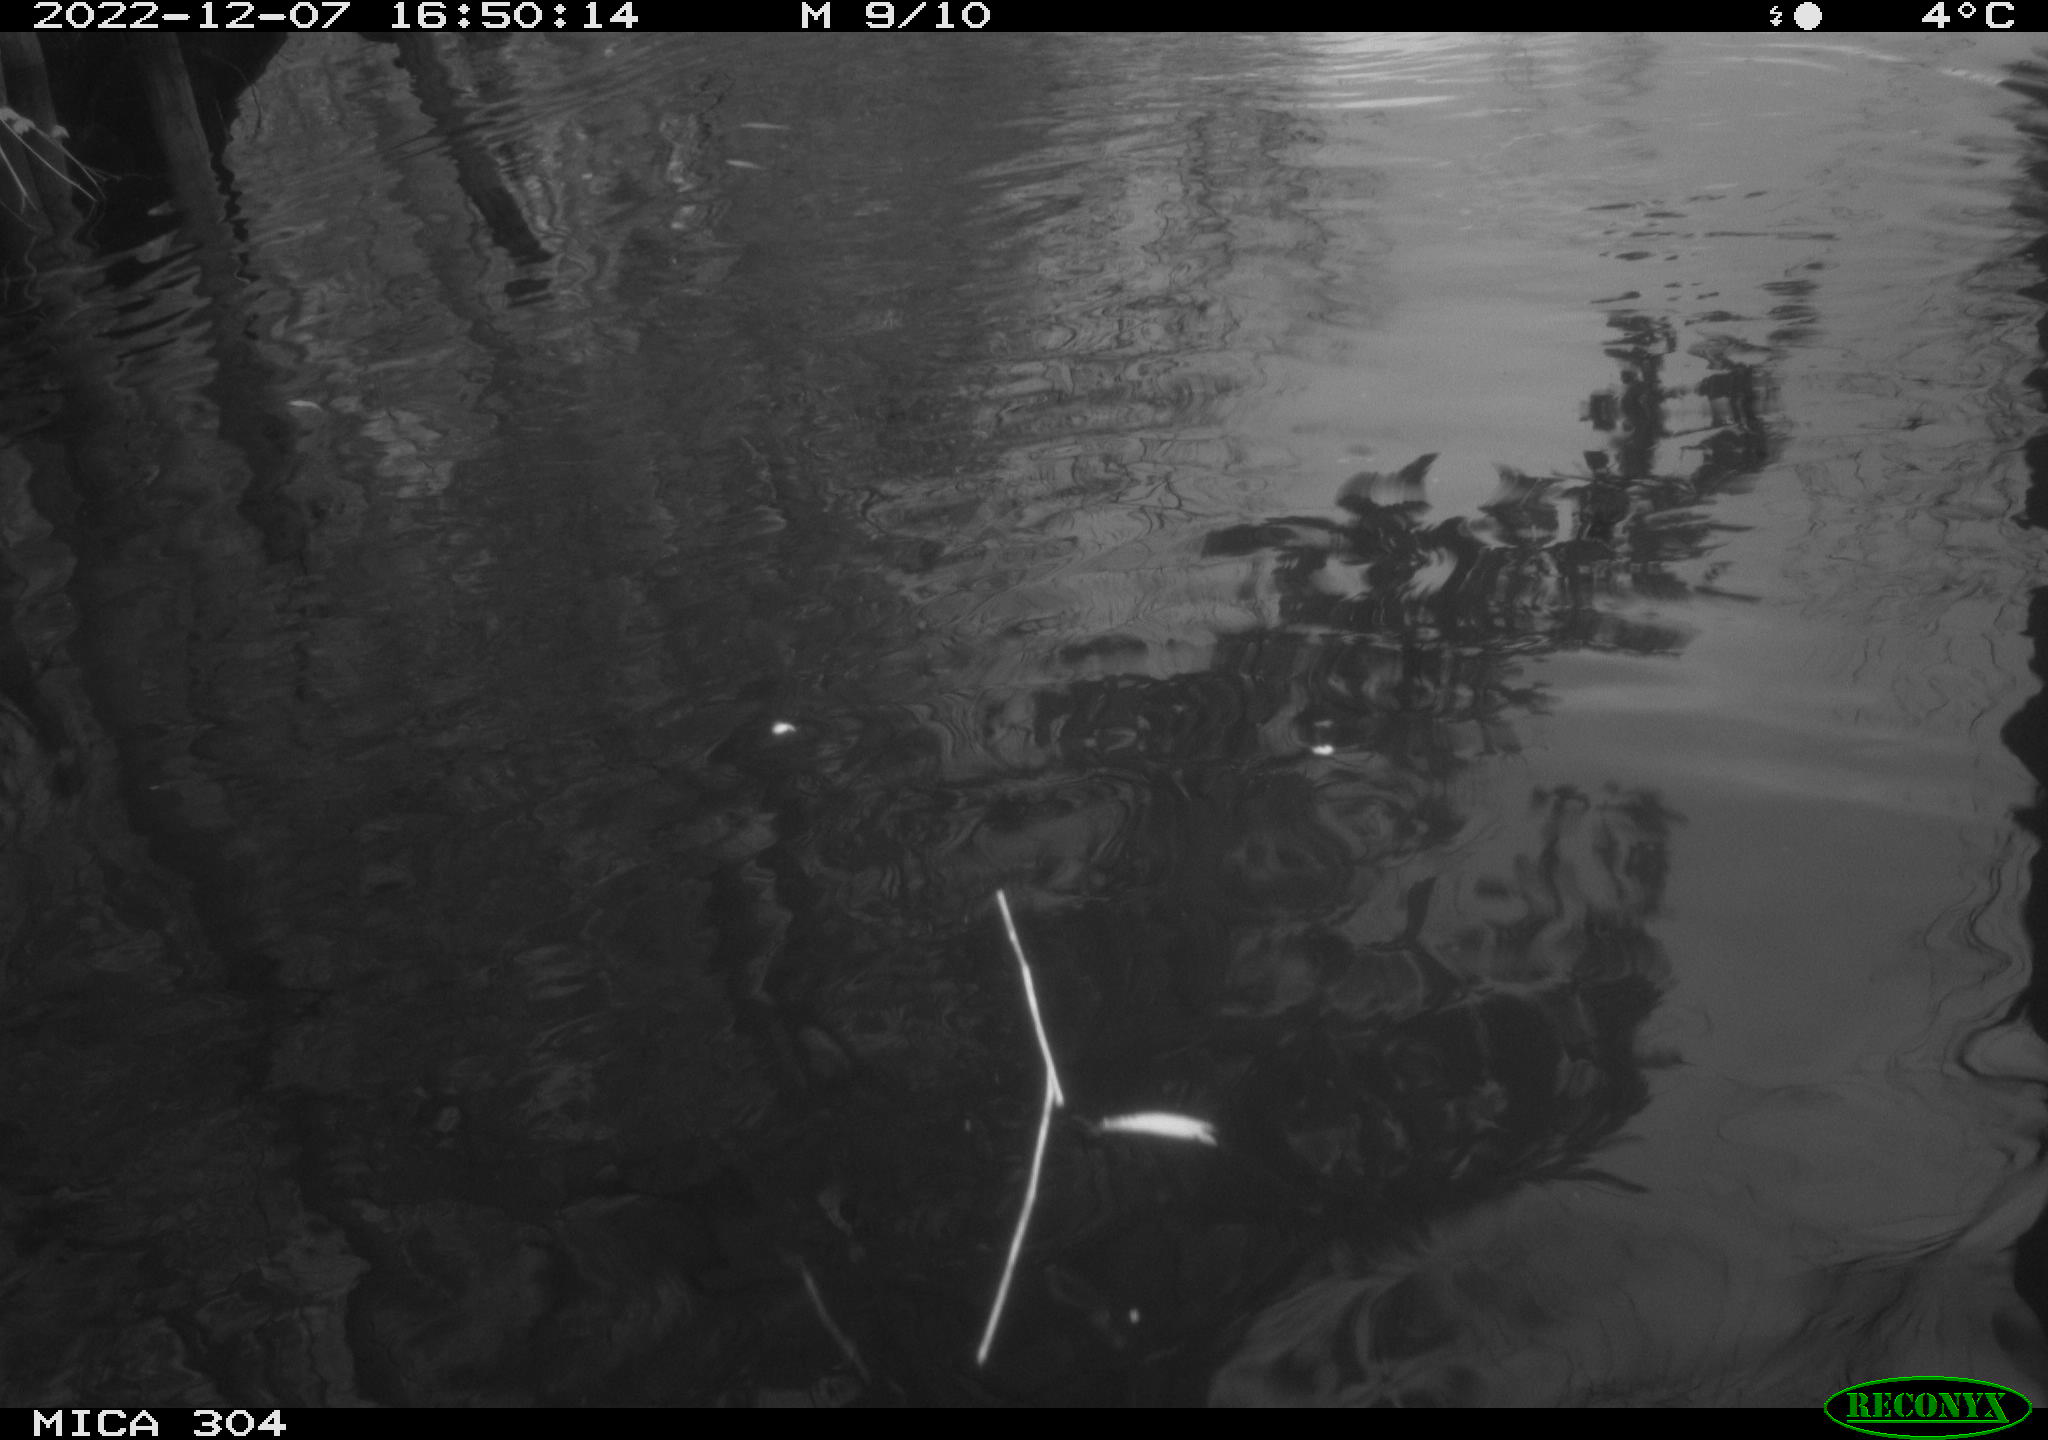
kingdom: Animalia
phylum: Chordata
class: Aves
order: Anseriformes
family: Anatidae
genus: Anas
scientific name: Anas
